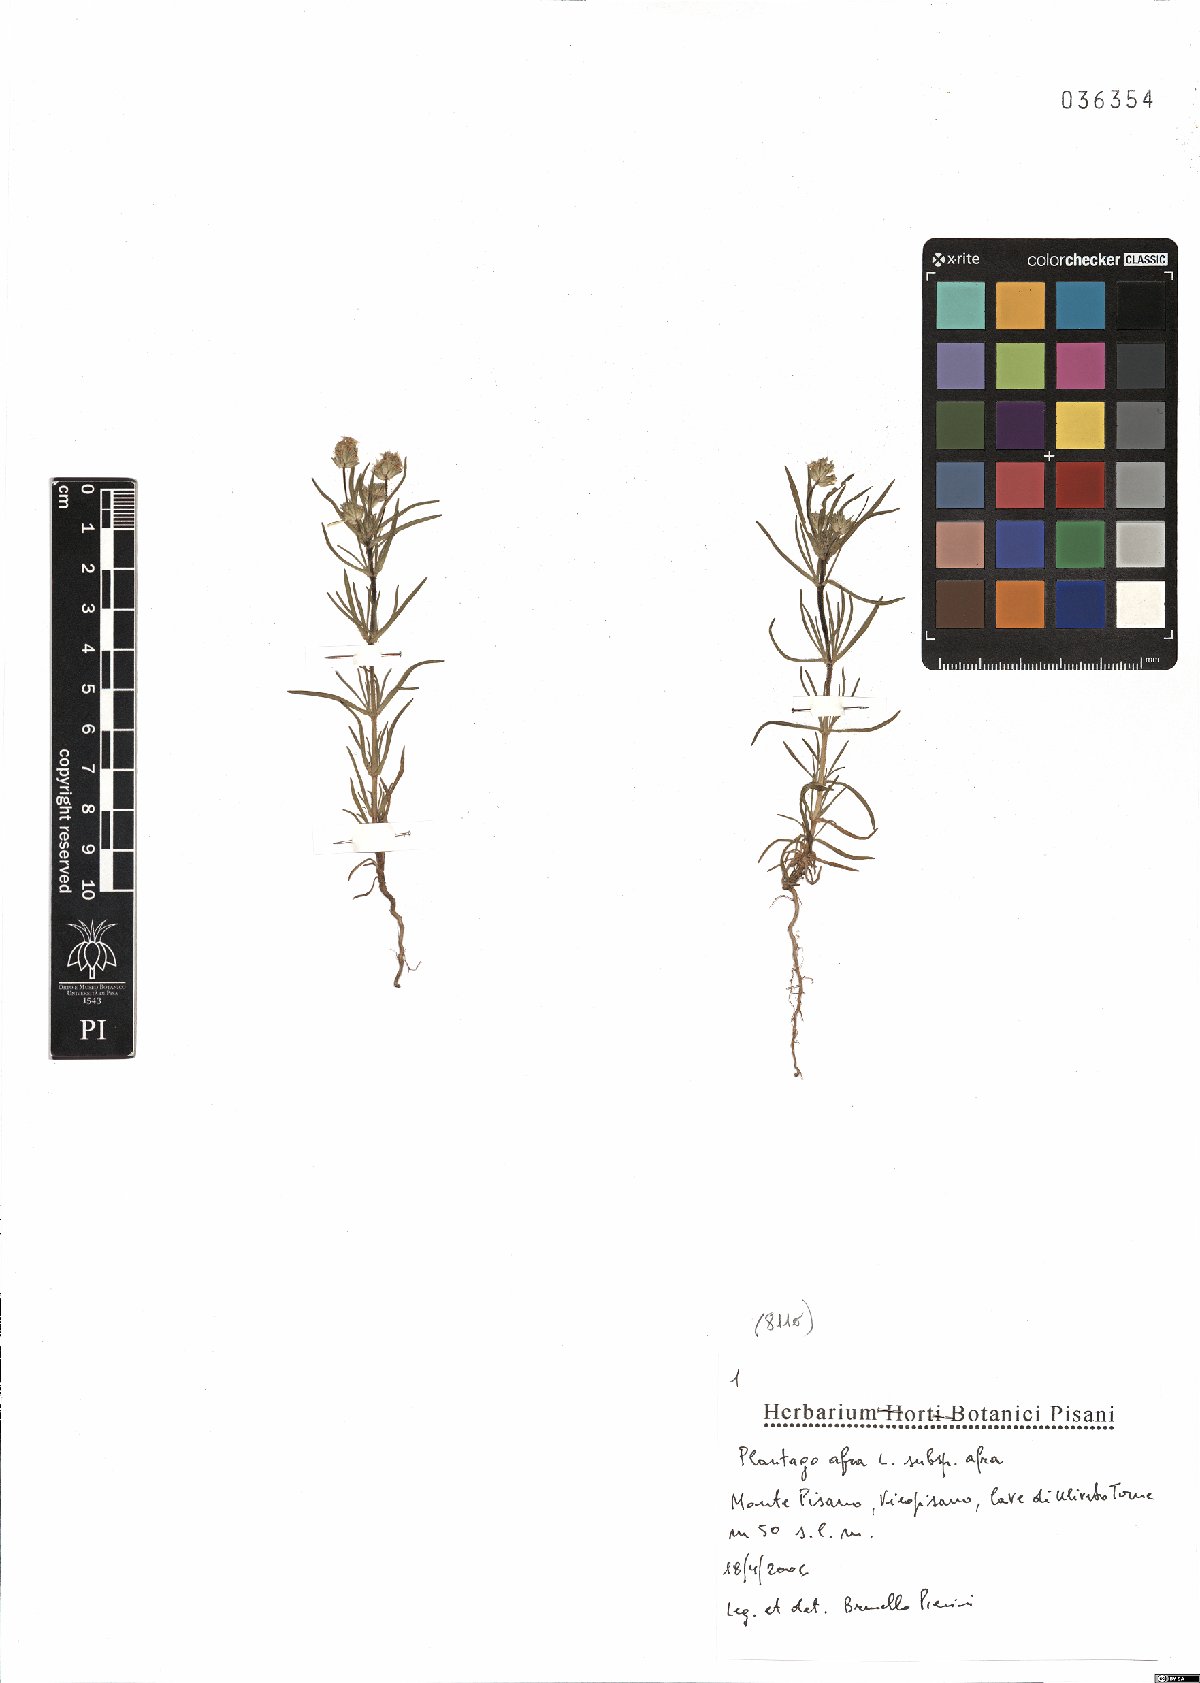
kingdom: Plantae
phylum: Tracheophyta
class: Magnoliopsida
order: Lamiales
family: Plantaginaceae
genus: Plantago
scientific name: Plantago afra
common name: Glandular plantain
